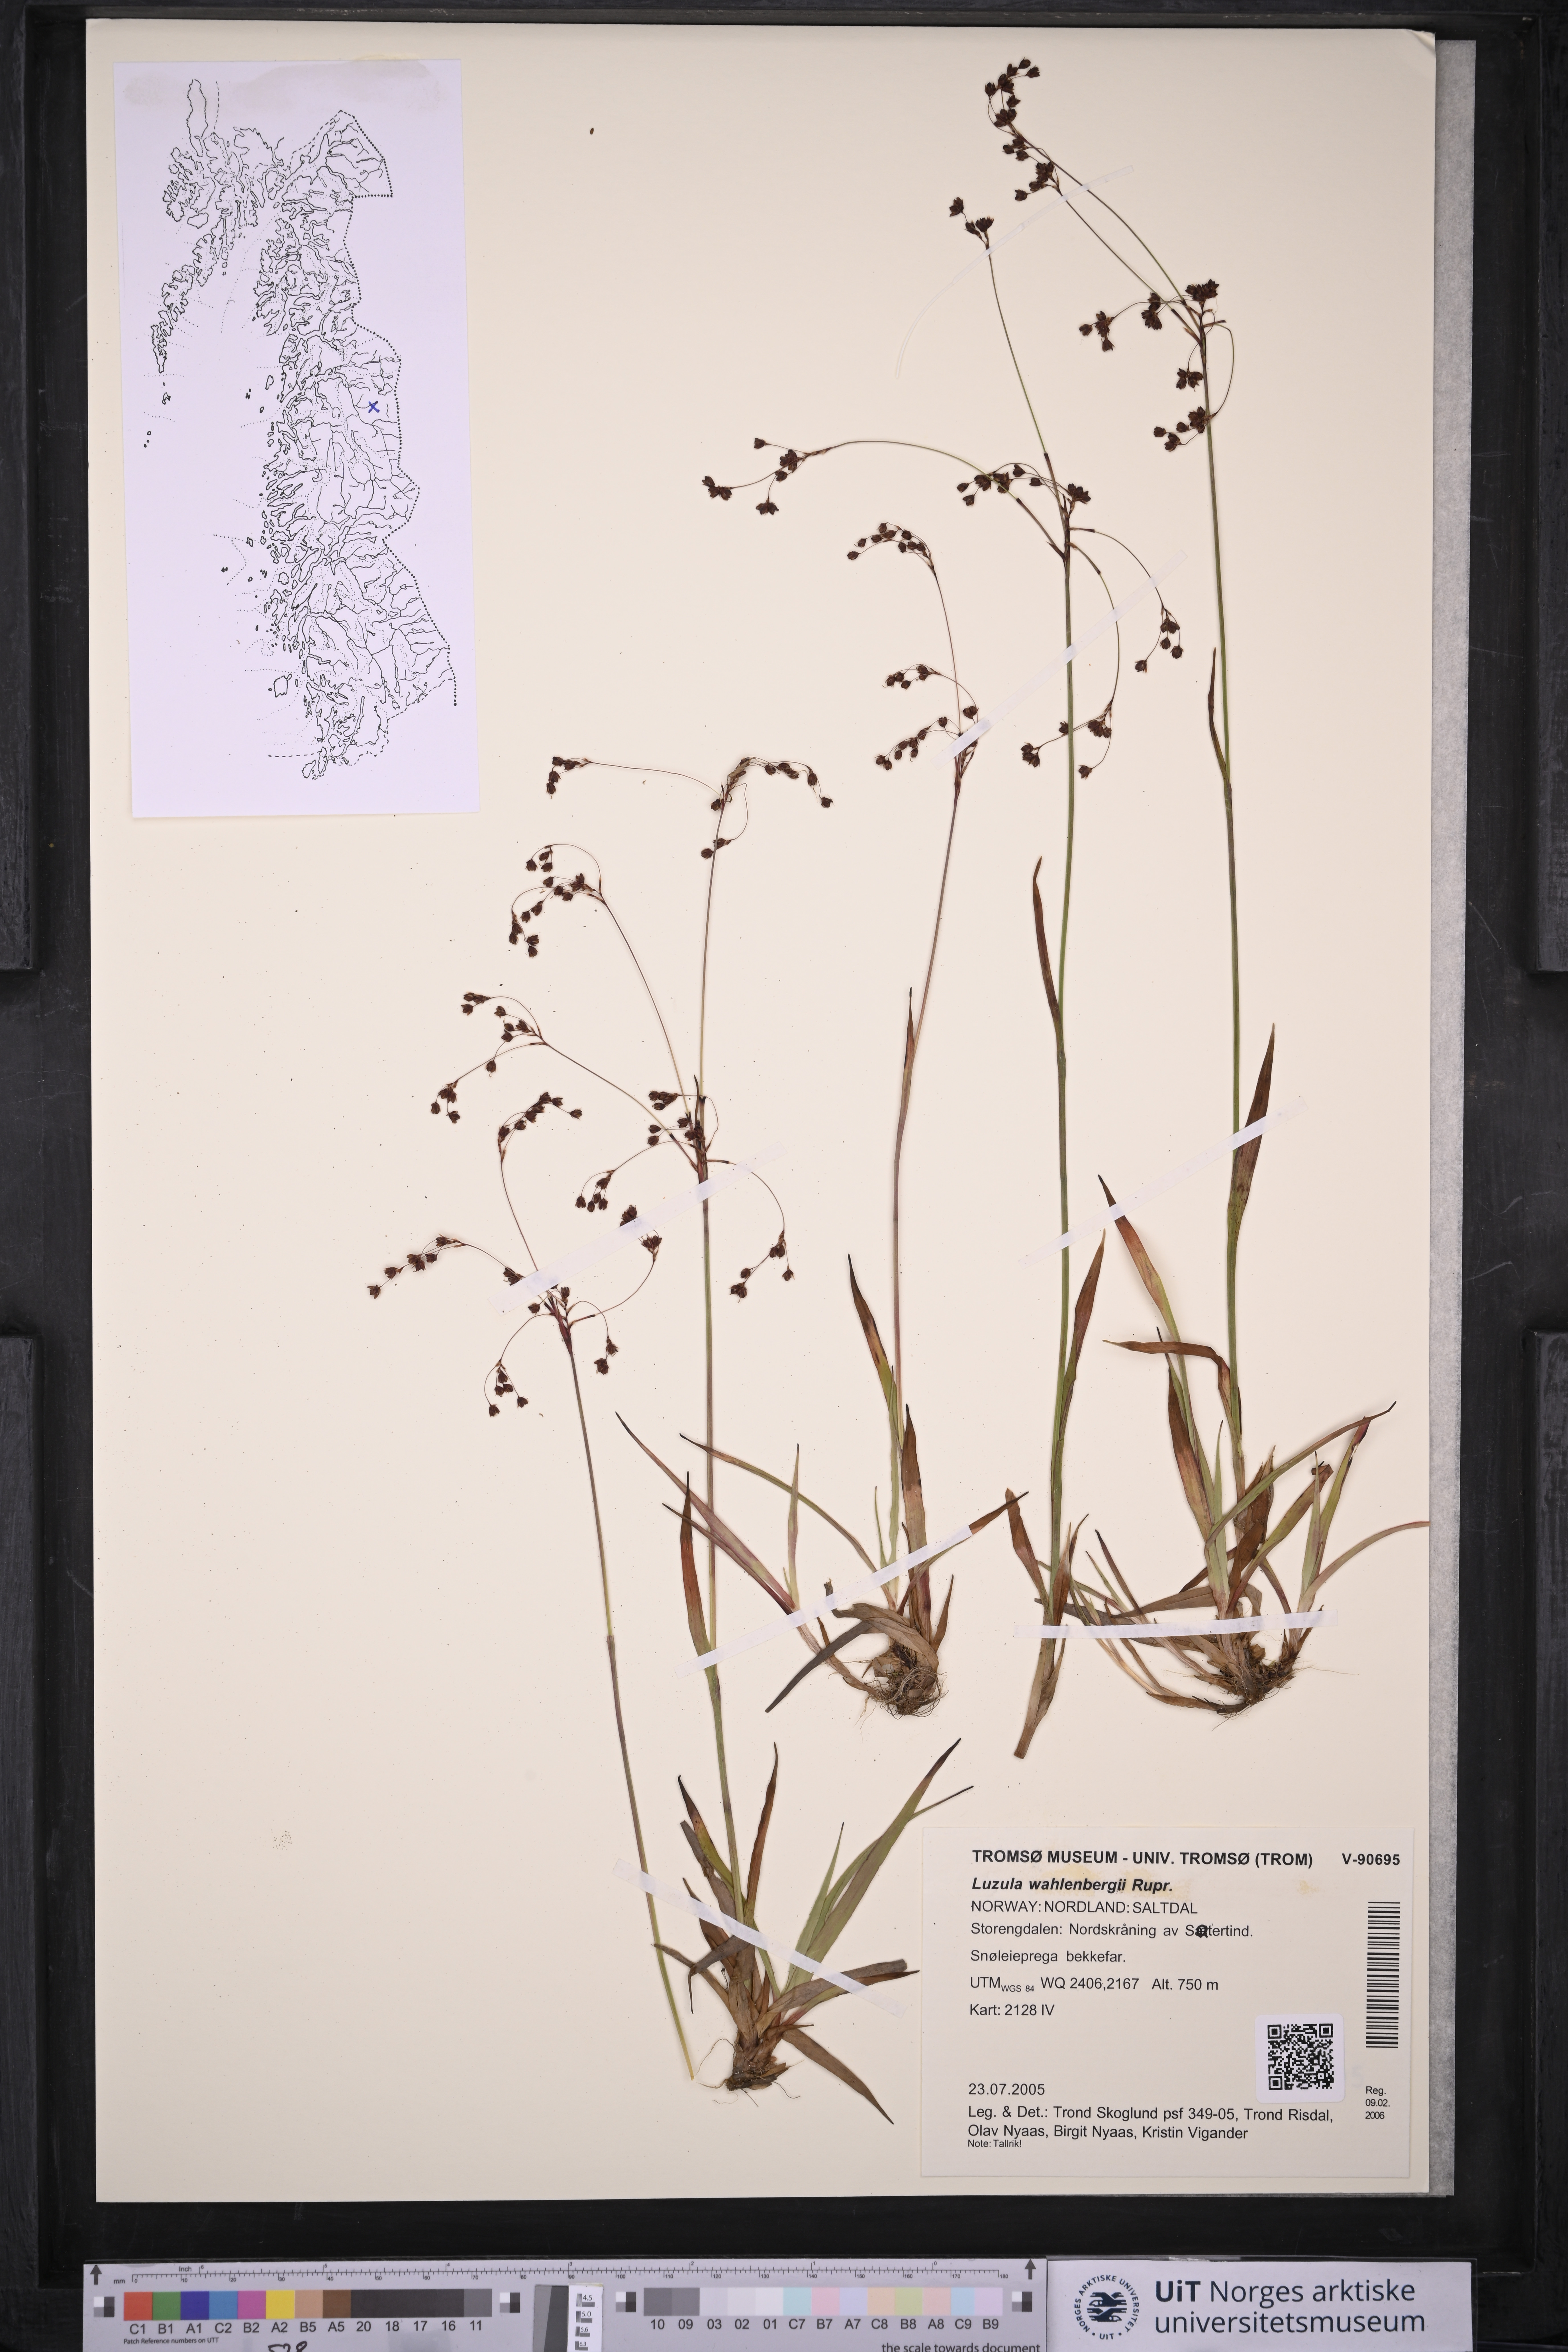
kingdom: Plantae
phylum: Tracheophyta
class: Liliopsida
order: Poales
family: Juncaceae
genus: Luzula
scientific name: Luzula wahlenbergii
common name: Wahlenberg's wood-rush
